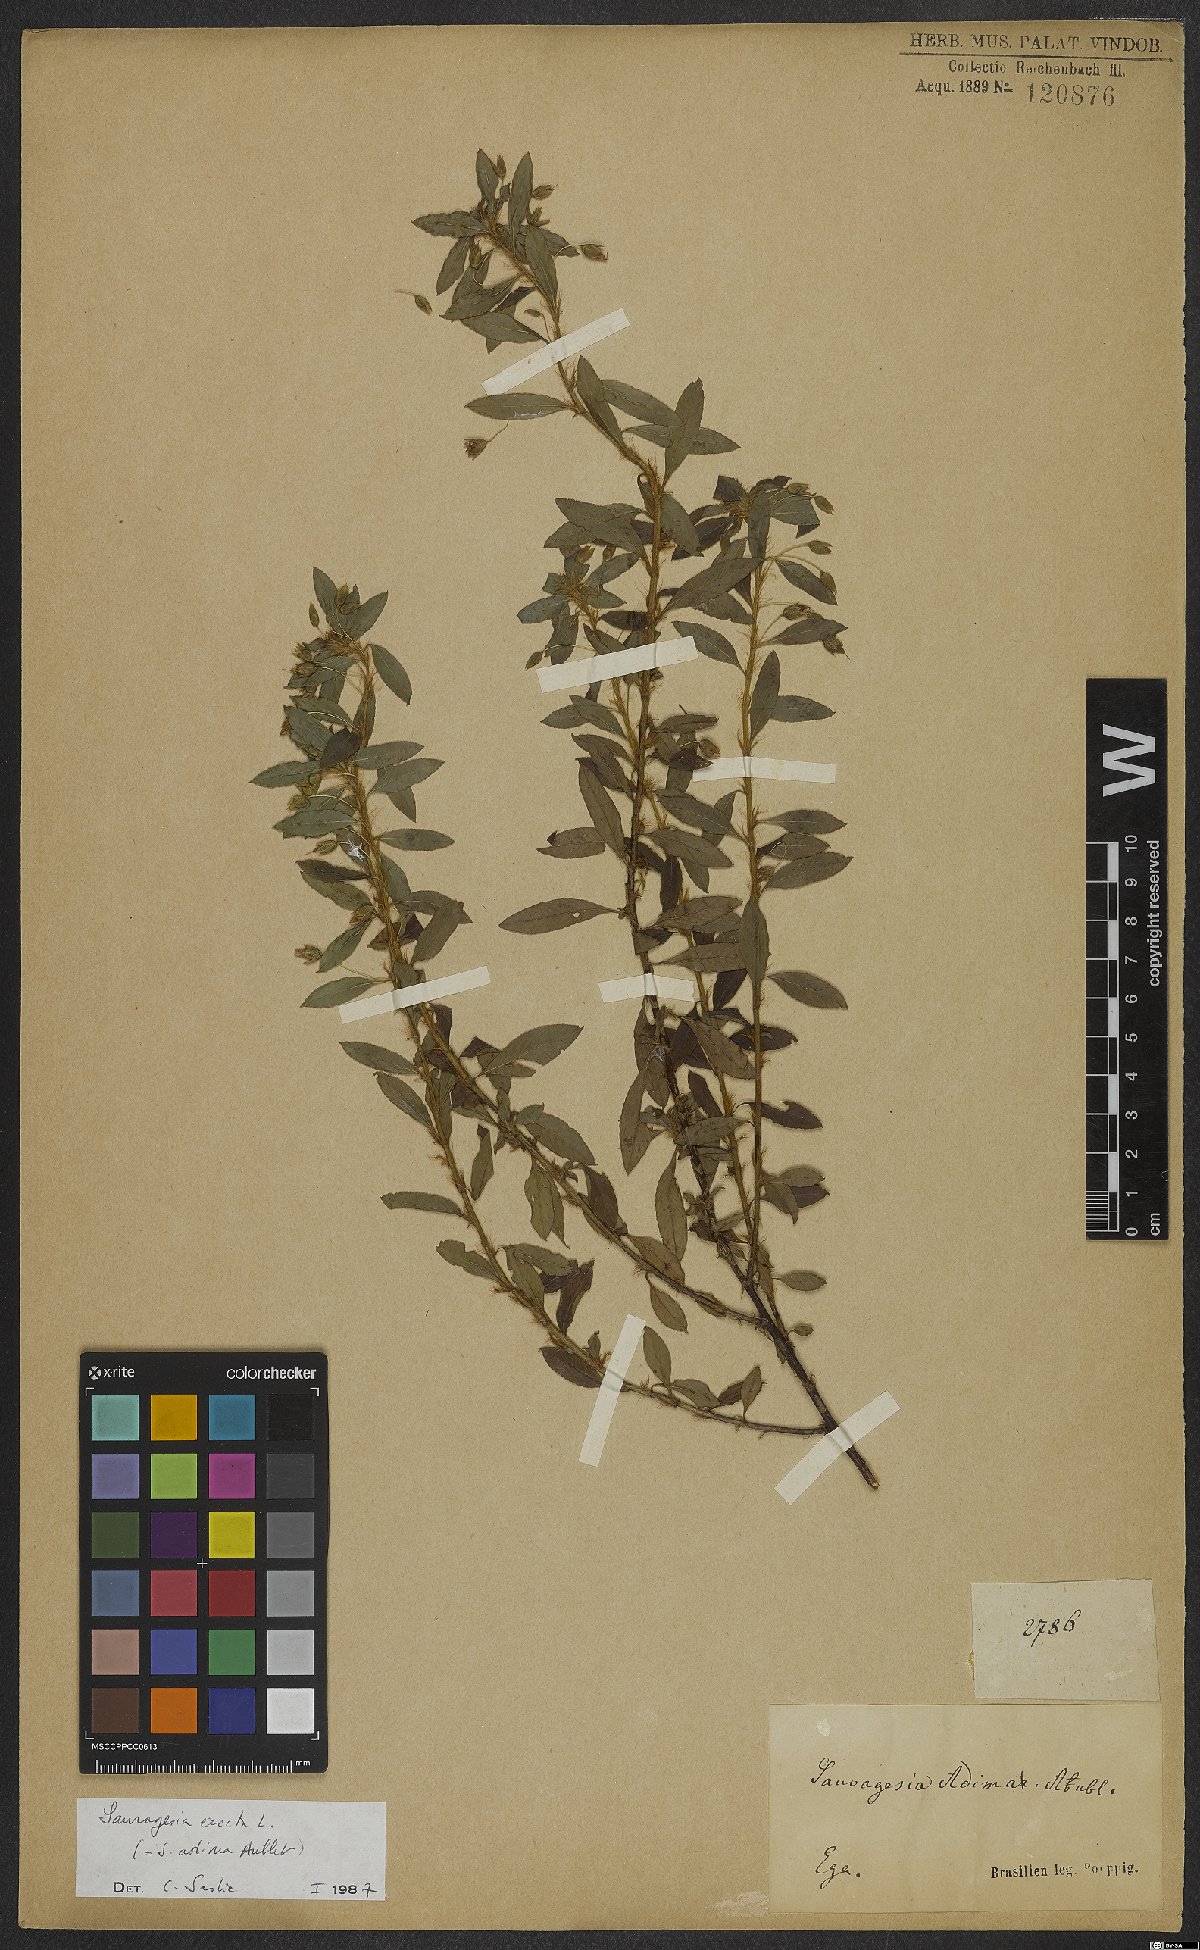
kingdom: Plantae
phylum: Tracheophyta
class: Magnoliopsida
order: Malpighiales
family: Ochnaceae
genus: Sauvagesia
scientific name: Sauvagesia elata
